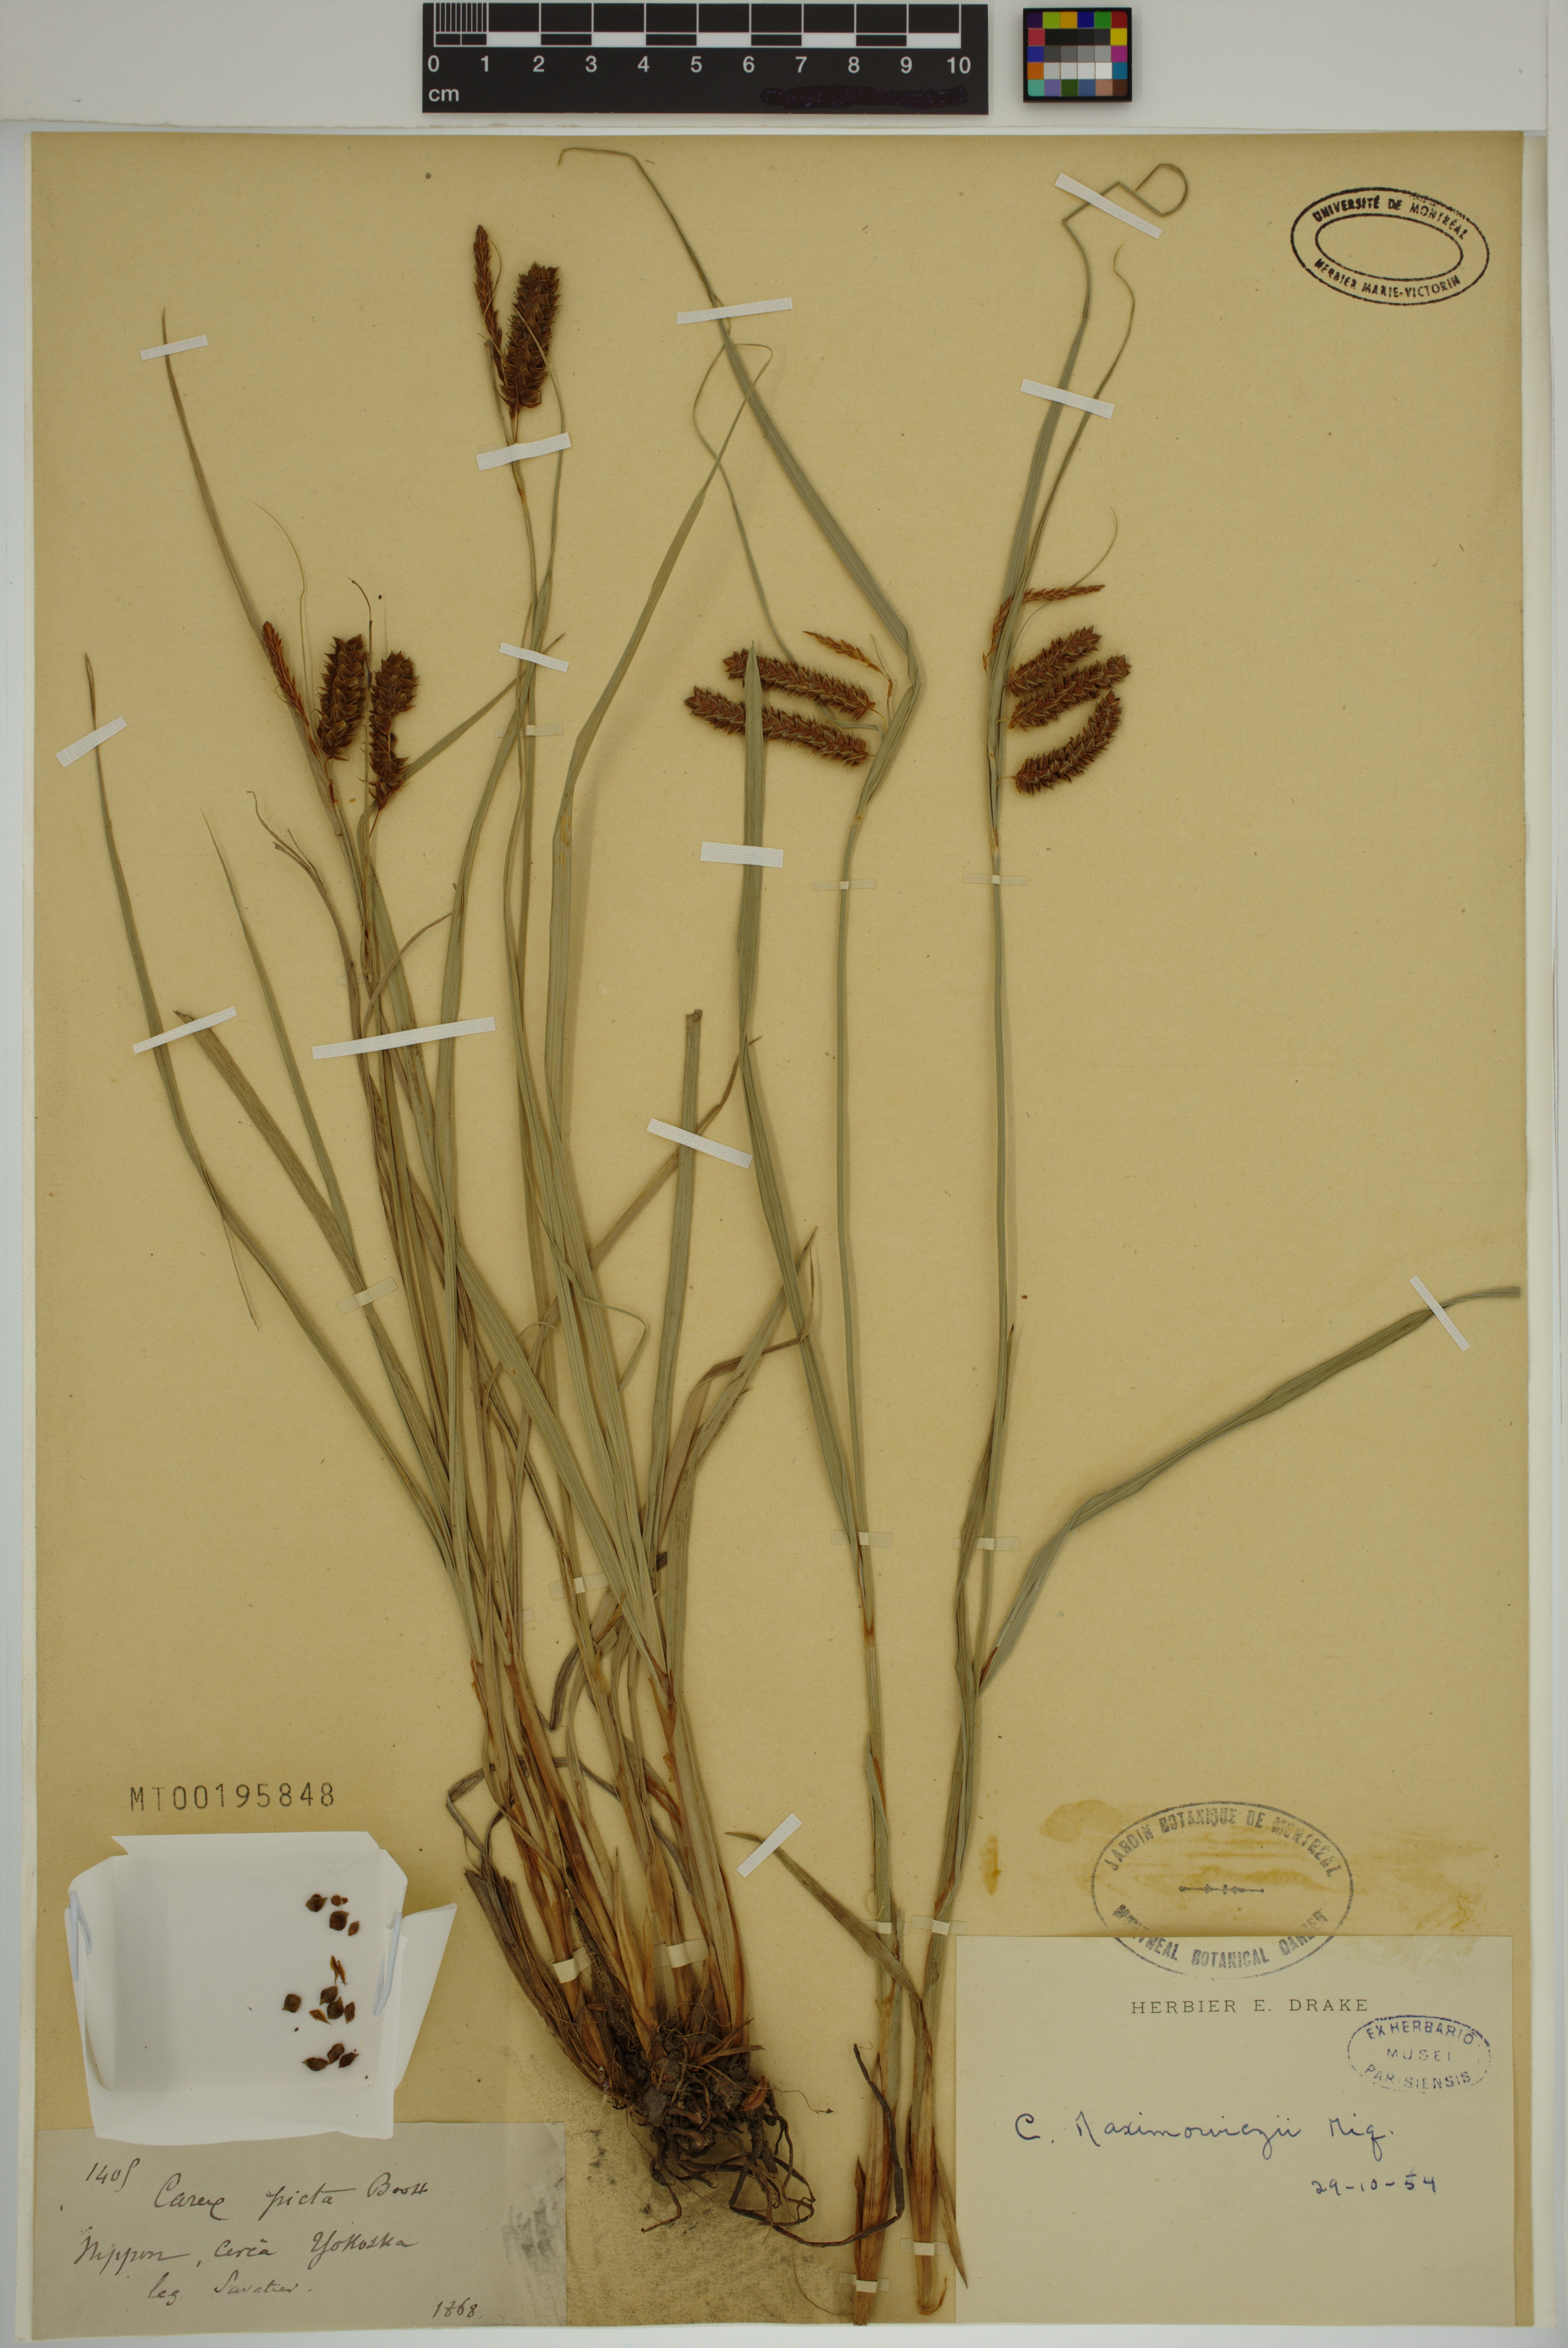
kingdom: Plantae
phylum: Tracheophyta
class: Liliopsida
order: Poales
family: Cyperaceae
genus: Carex
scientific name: Carex maximowiczii
